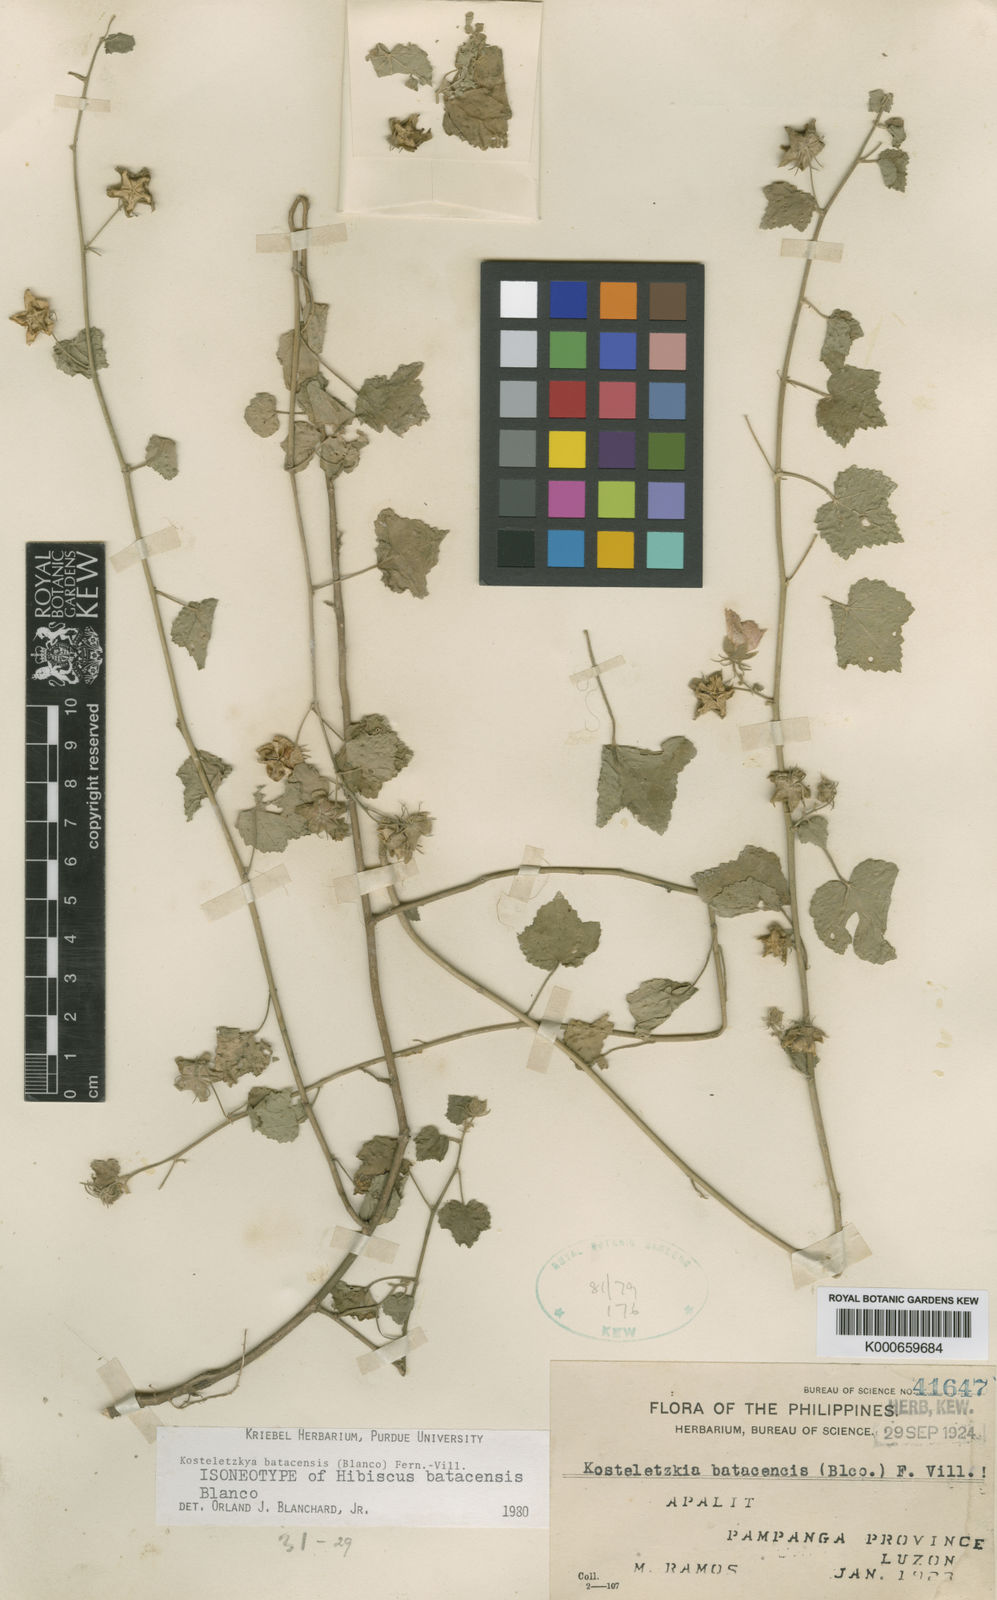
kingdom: Plantae
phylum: Tracheophyta
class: Magnoliopsida
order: Malvales
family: Malvaceae
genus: Kosteletzkya
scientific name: Kosteletzkya batacensis
